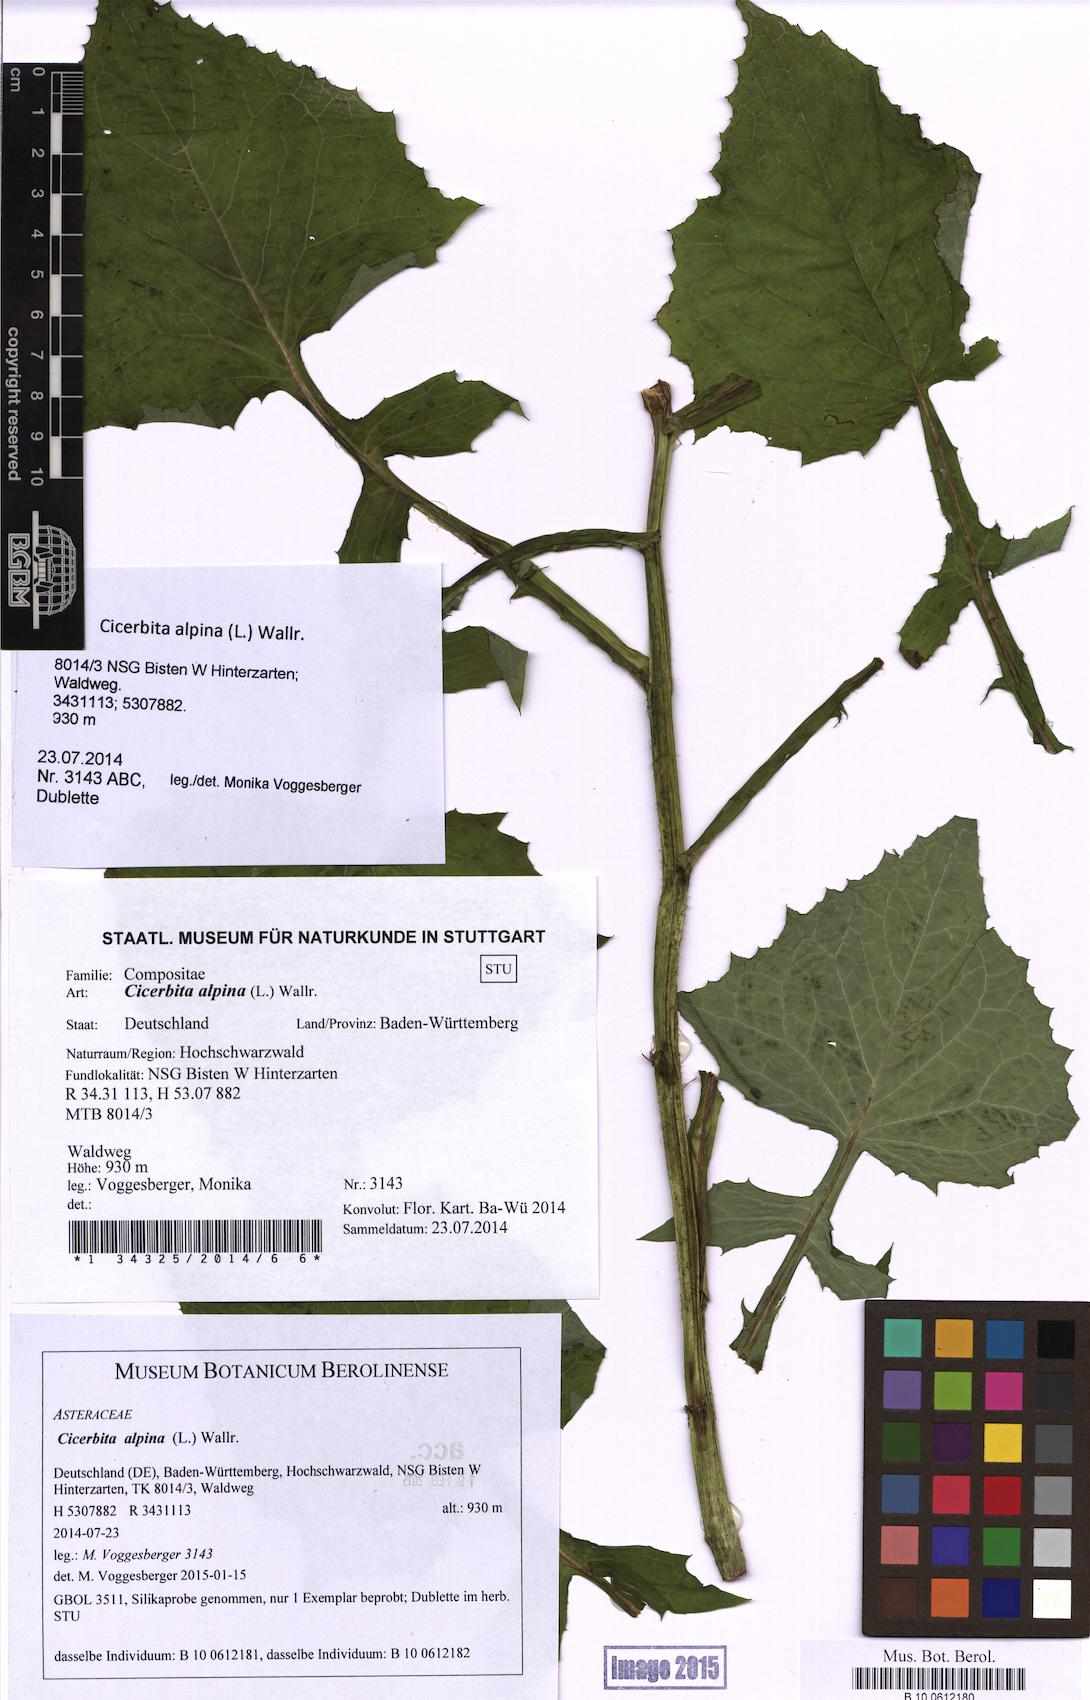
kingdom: Plantae
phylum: Tracheophyta
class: Magnoliopsida
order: Asterales
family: Asteraceae
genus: Cicerbita
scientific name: Cicerbita alpina
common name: Alpine blue-sow-thistle
